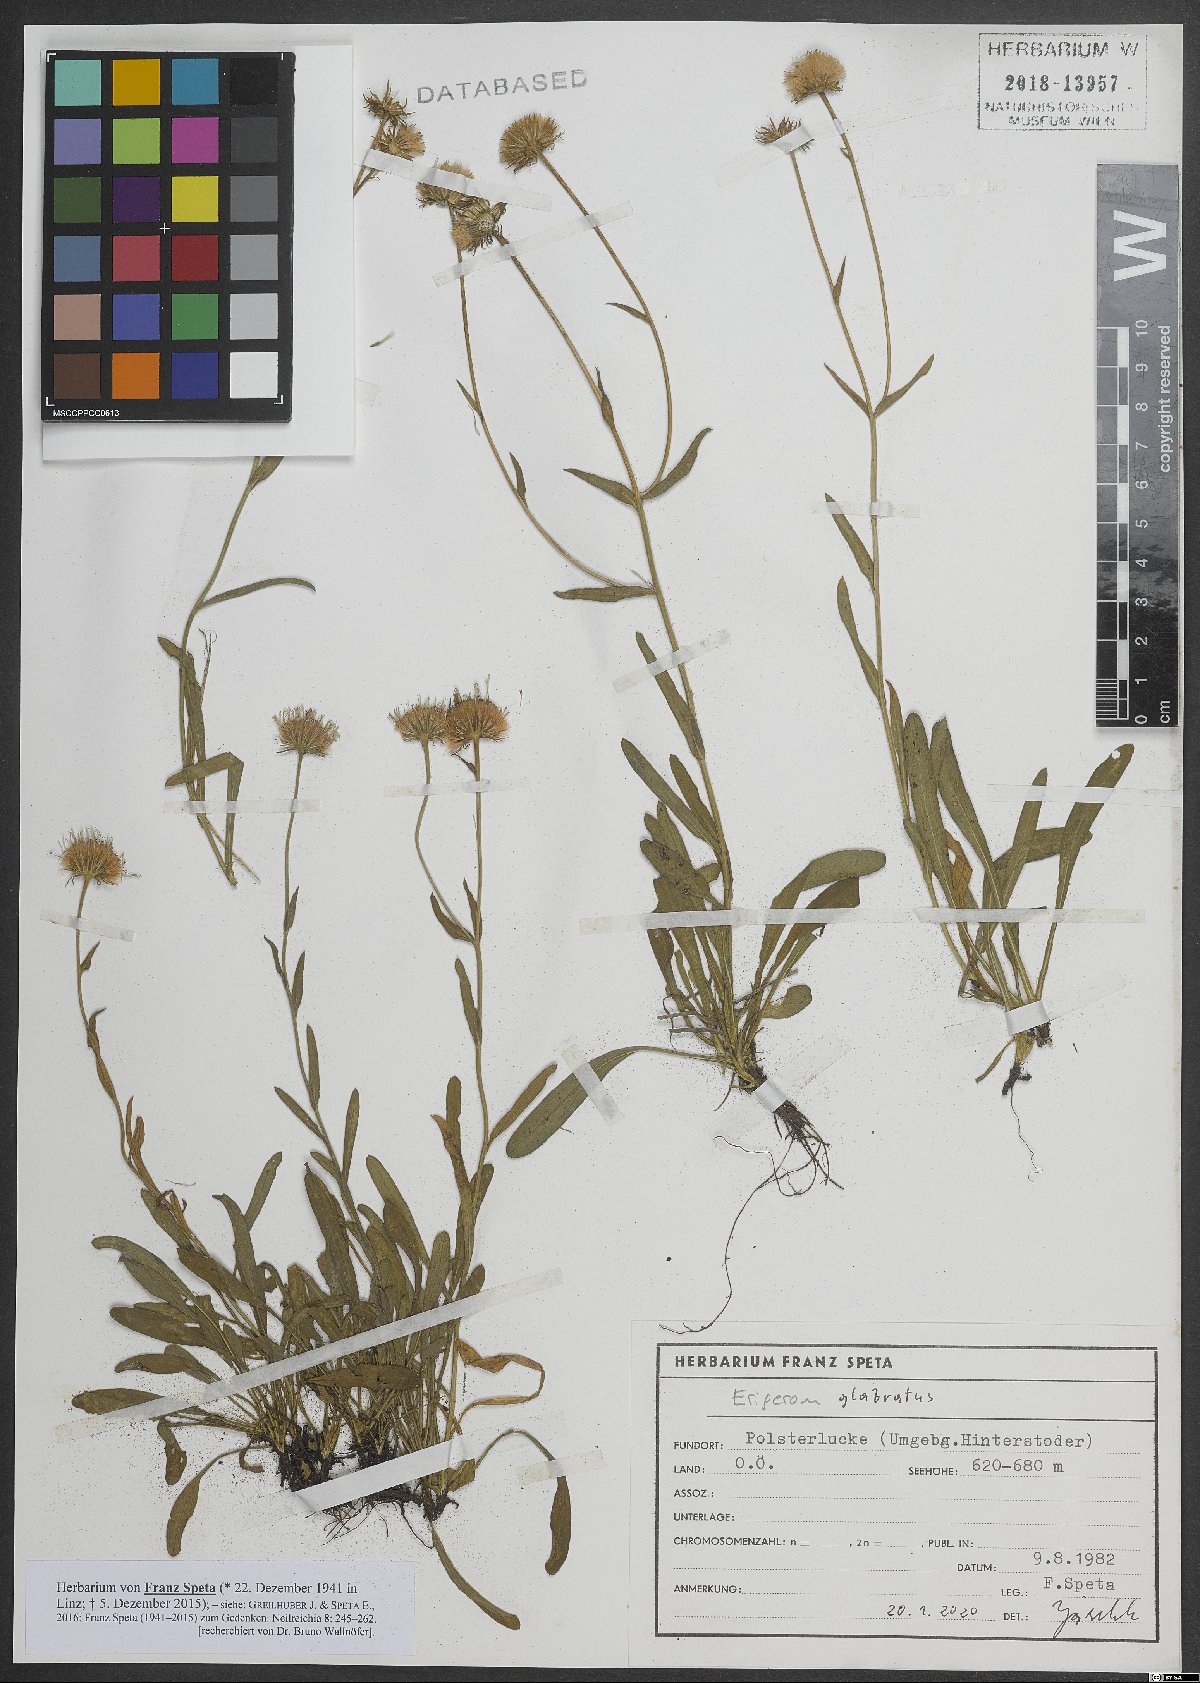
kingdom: Plantae
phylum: Tracheophyta
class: Magnoliopsida
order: Asterales
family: Asteraceae
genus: Erigeron
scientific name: Erigeron glabratus
